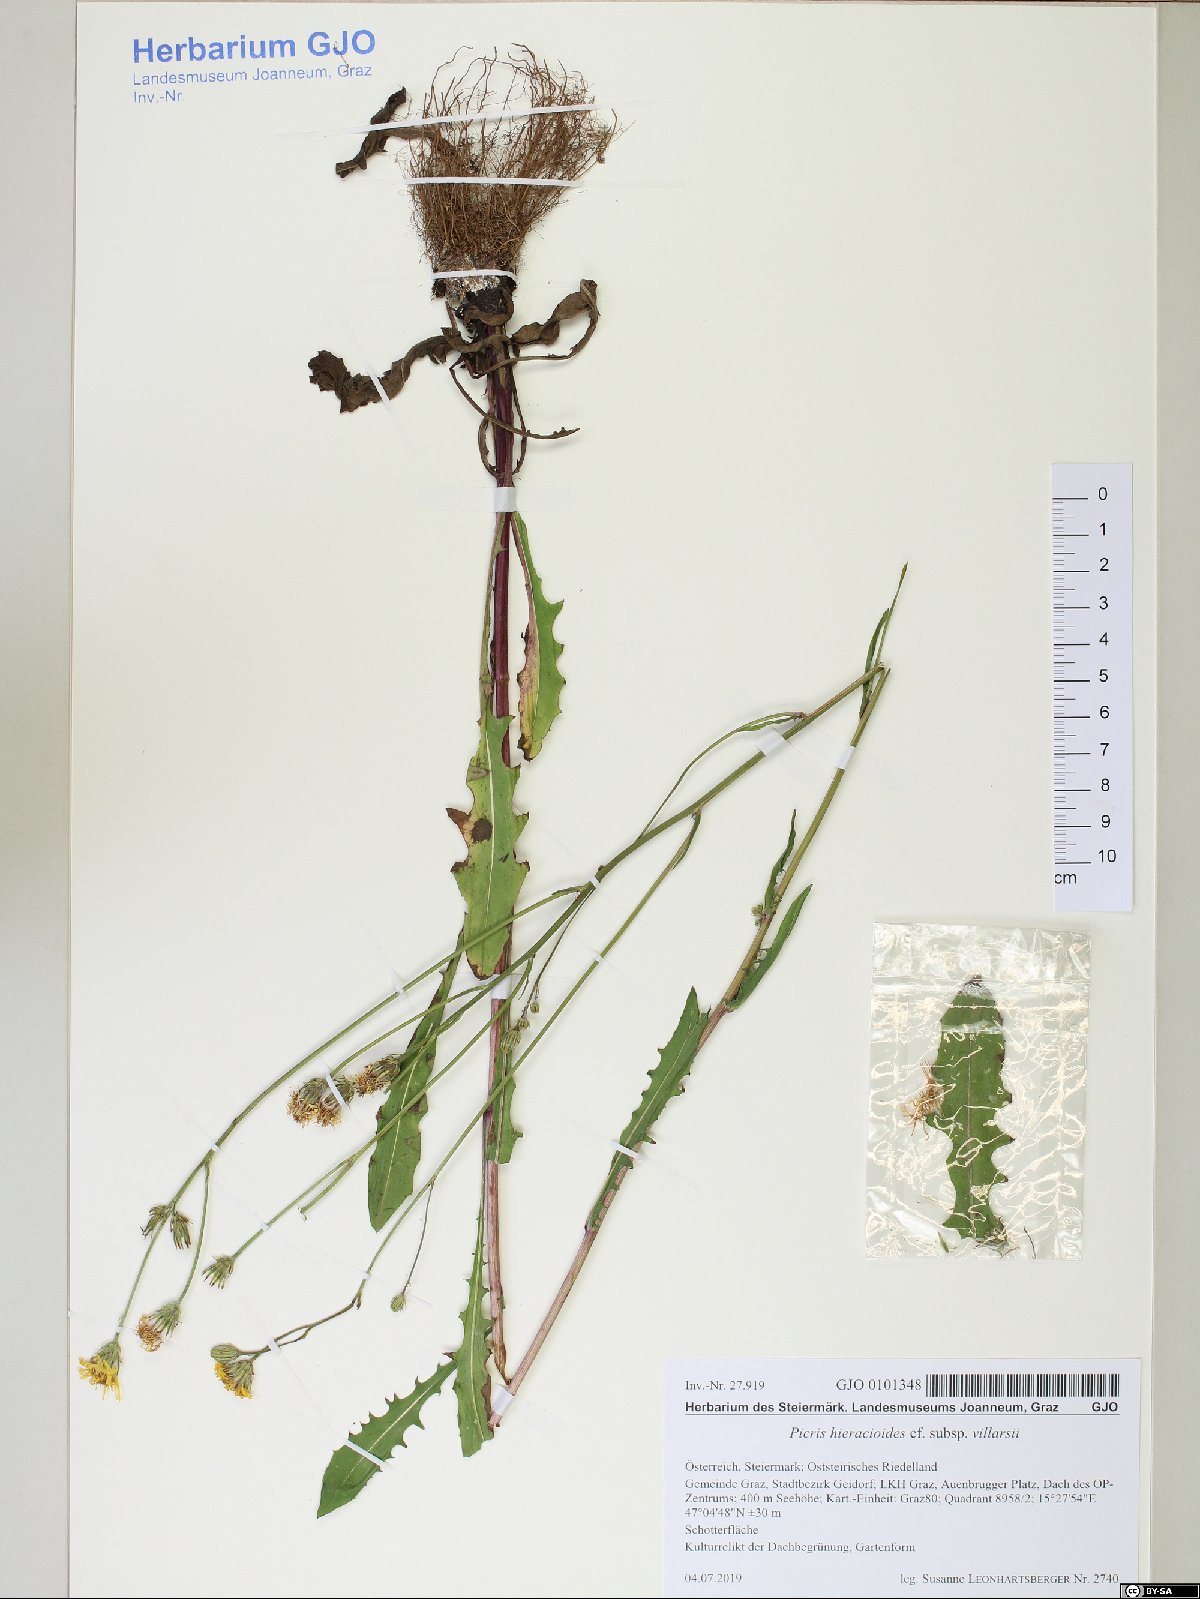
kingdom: Plantae
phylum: Tracheophyta
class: Magnoliopsida
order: Asterales
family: Asteraceae
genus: Picris
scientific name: Picris hieracioides
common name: Hawkweed oxtongue
